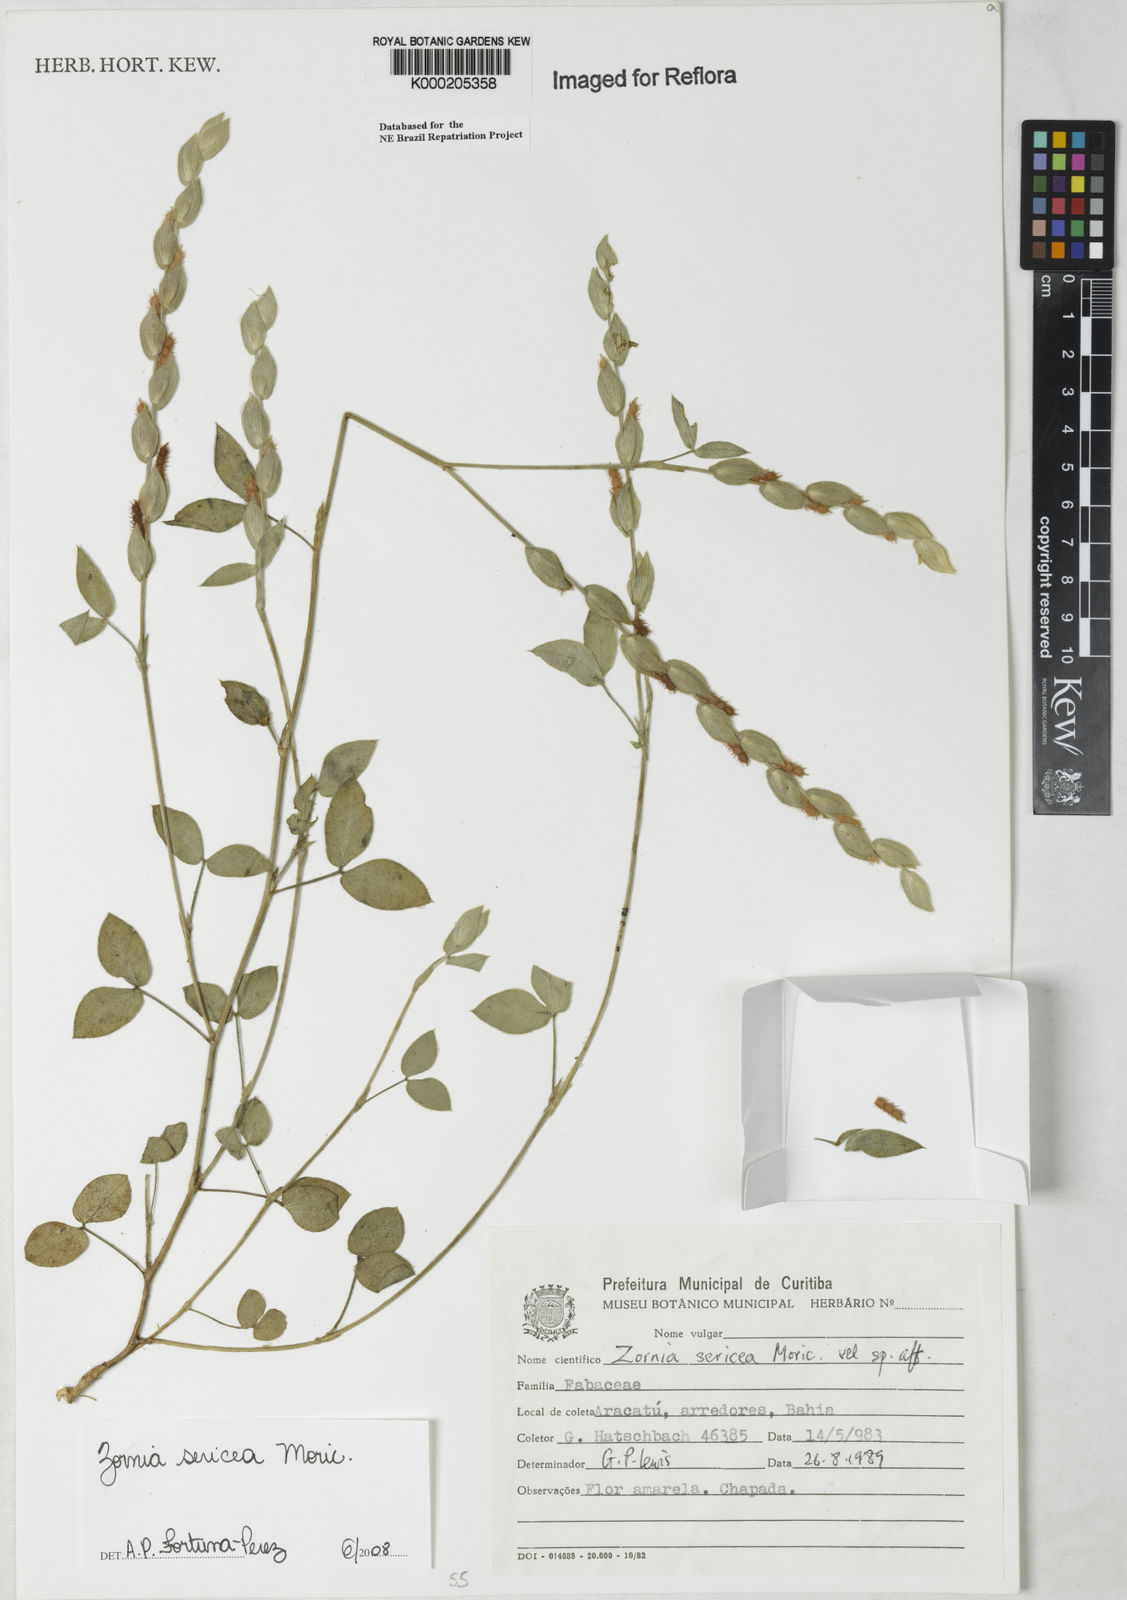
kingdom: Plantae
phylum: Tracheophyta
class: Magnoliopsida
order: Fabales
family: Fabaceae
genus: Zornia
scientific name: Zornia sericea
